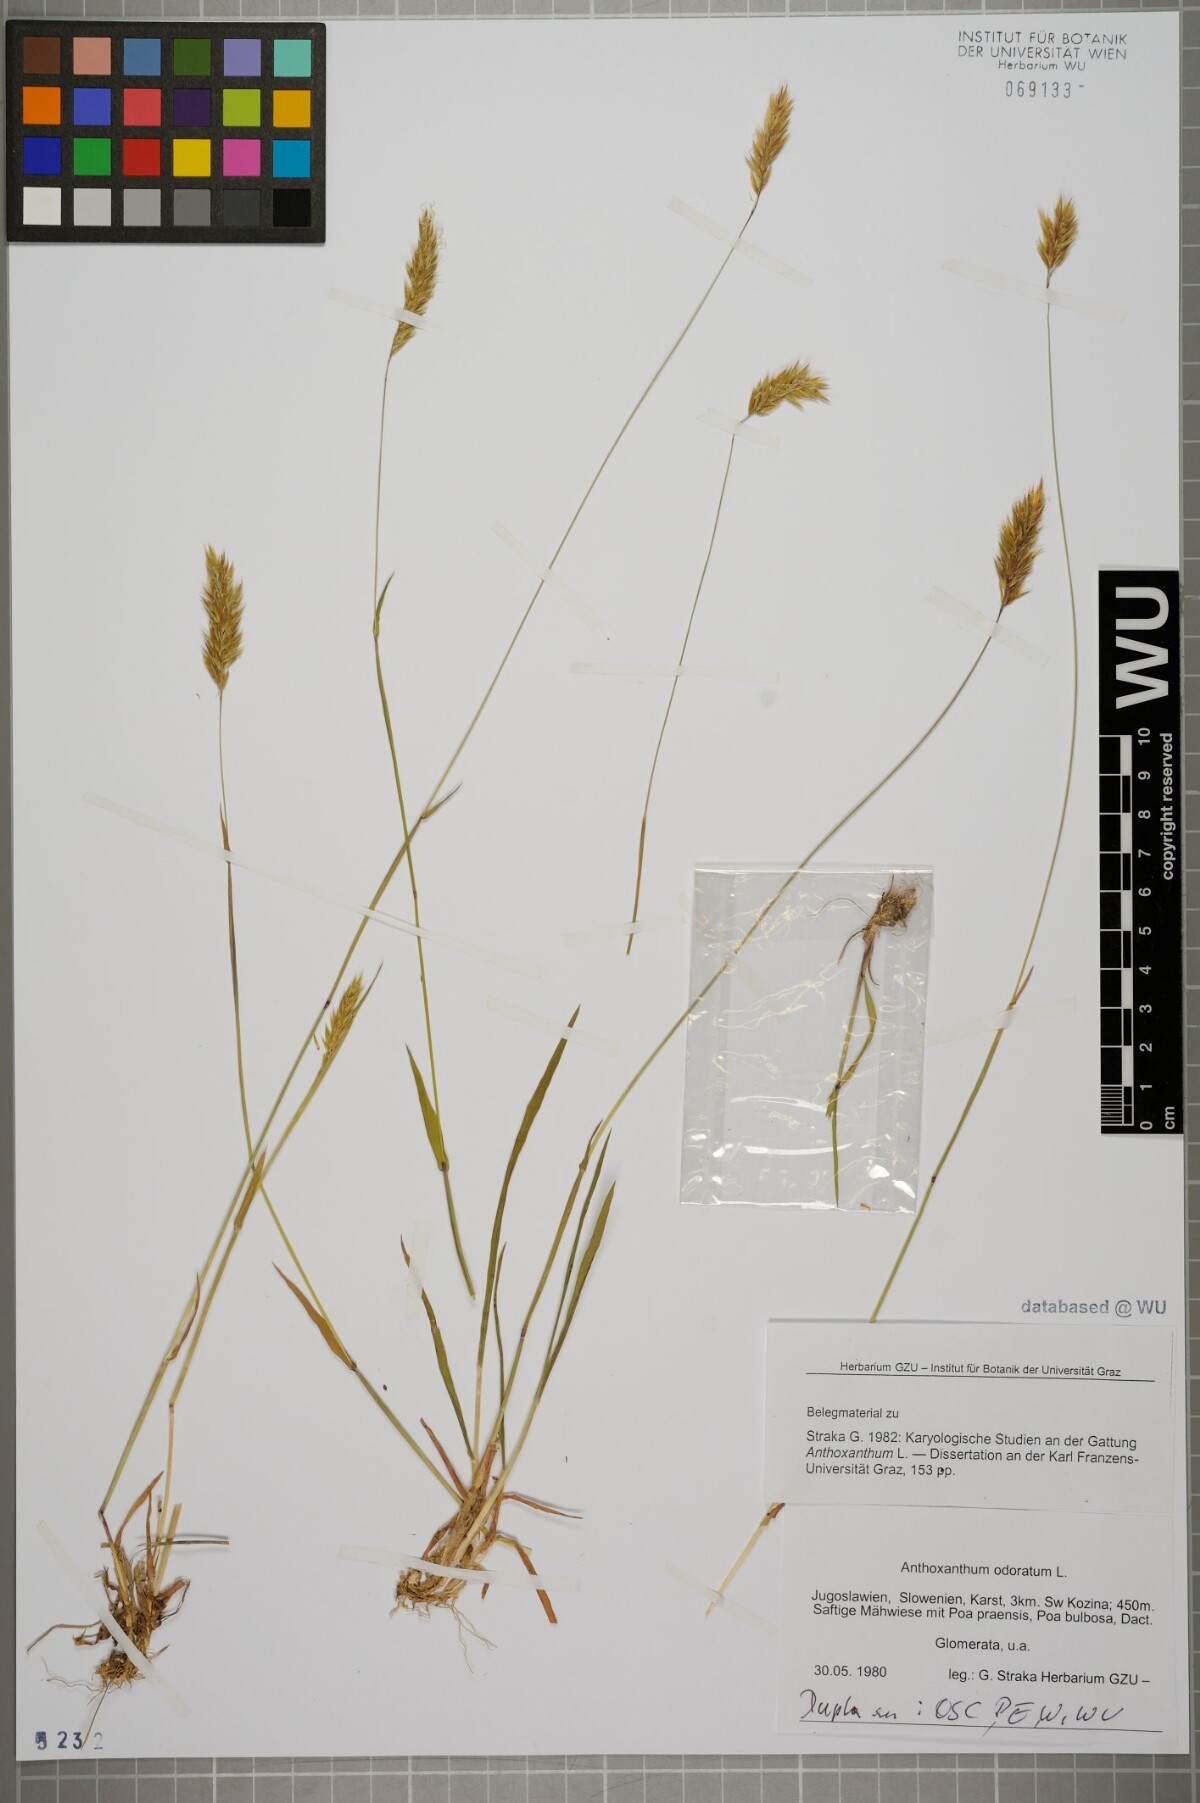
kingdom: Plantae
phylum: Tracheophyta
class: Liliopsida
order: Poales
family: Poaceae
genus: Anthoxanthum
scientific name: Anthoxanthum odoratum
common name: Sweet vernalgrass
